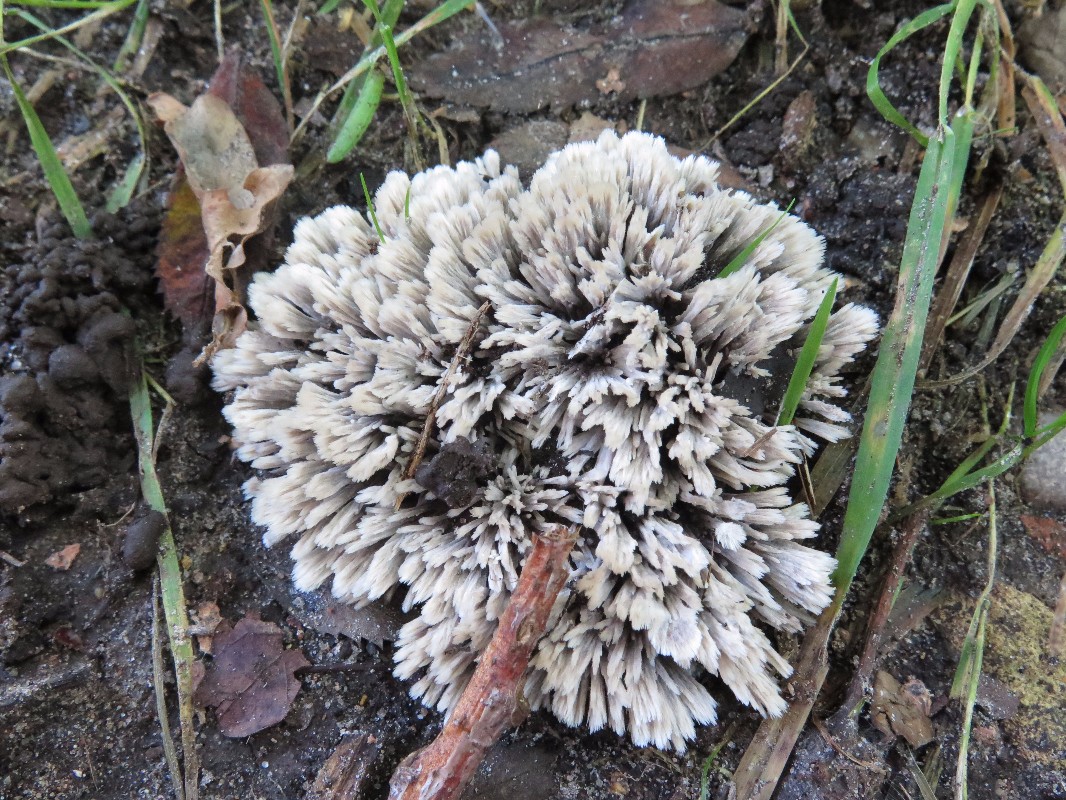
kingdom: Fungi
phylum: Basidiomycota
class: Agaricomycetes
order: Thelephorales
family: Thelephoraceae
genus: Thelephora
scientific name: Thelephora penicillata
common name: fladtrådt frynsesvamp
